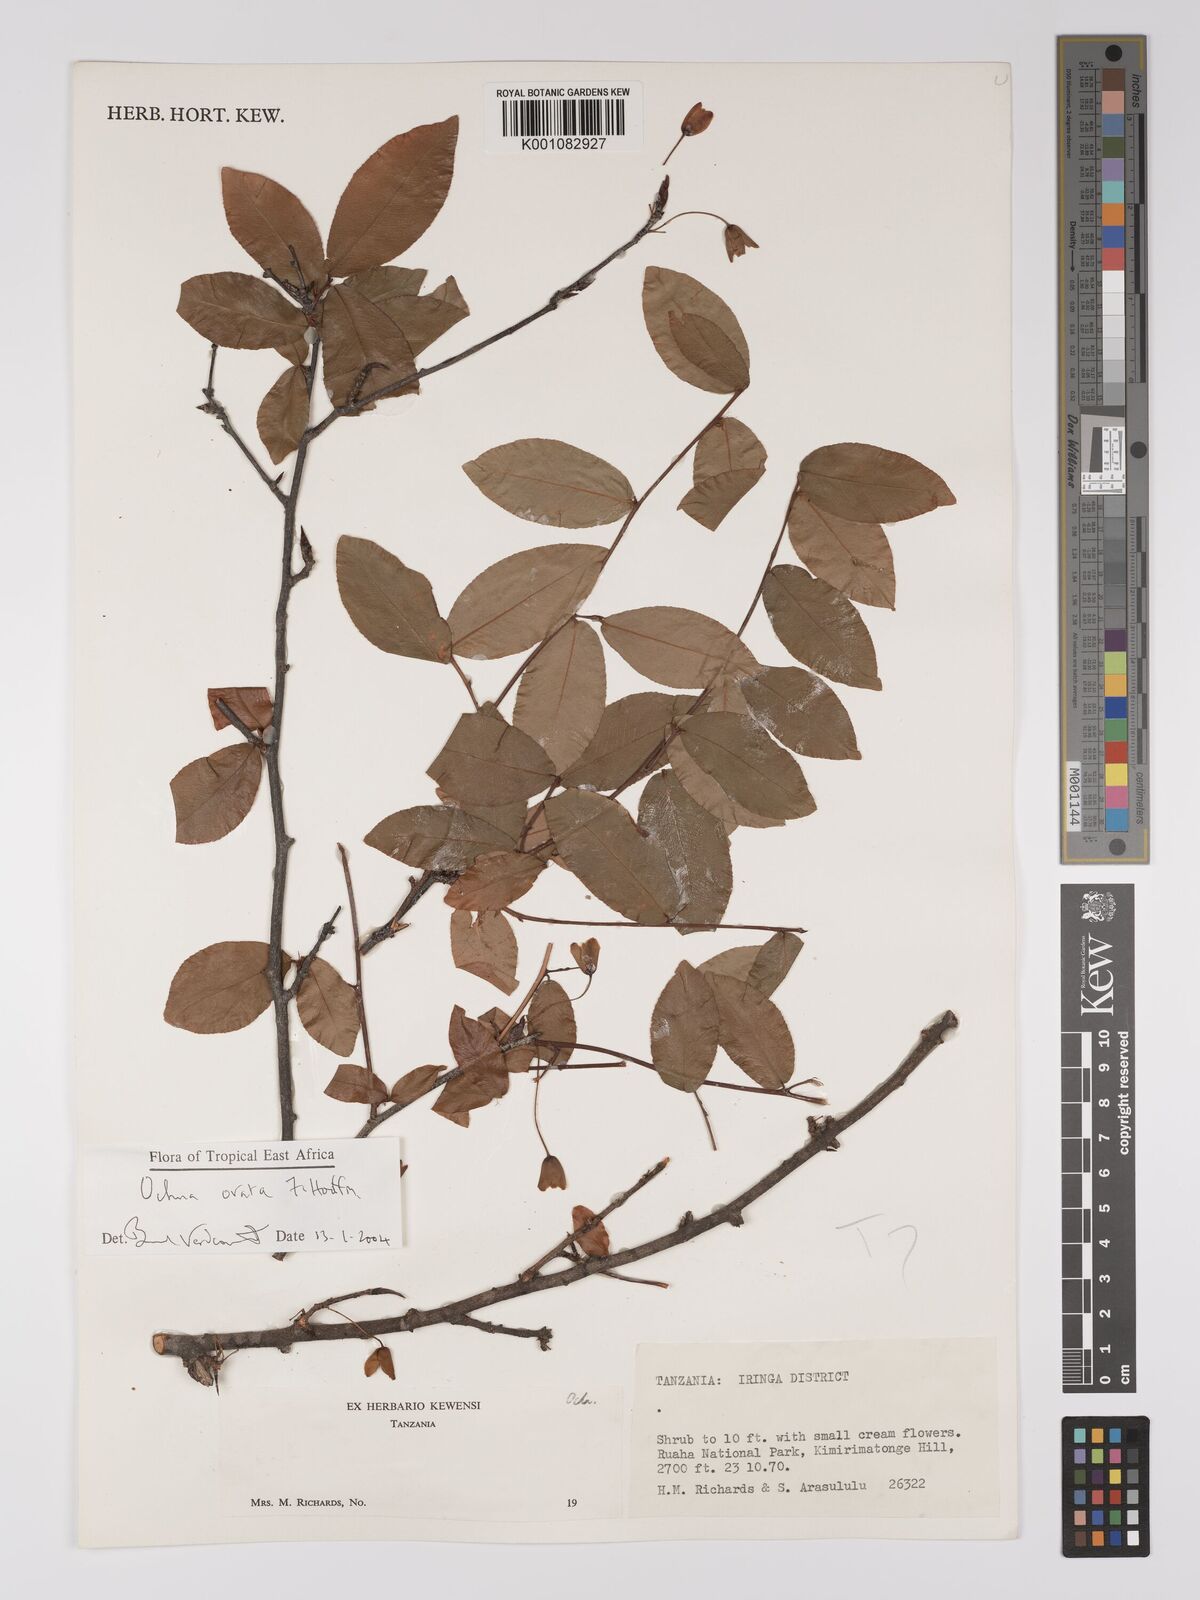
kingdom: Plantae
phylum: Tracheophyta
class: Magnoliopsida
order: Malpighiales
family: Ochnaceae
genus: Ochna
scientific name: Ochna ovata
